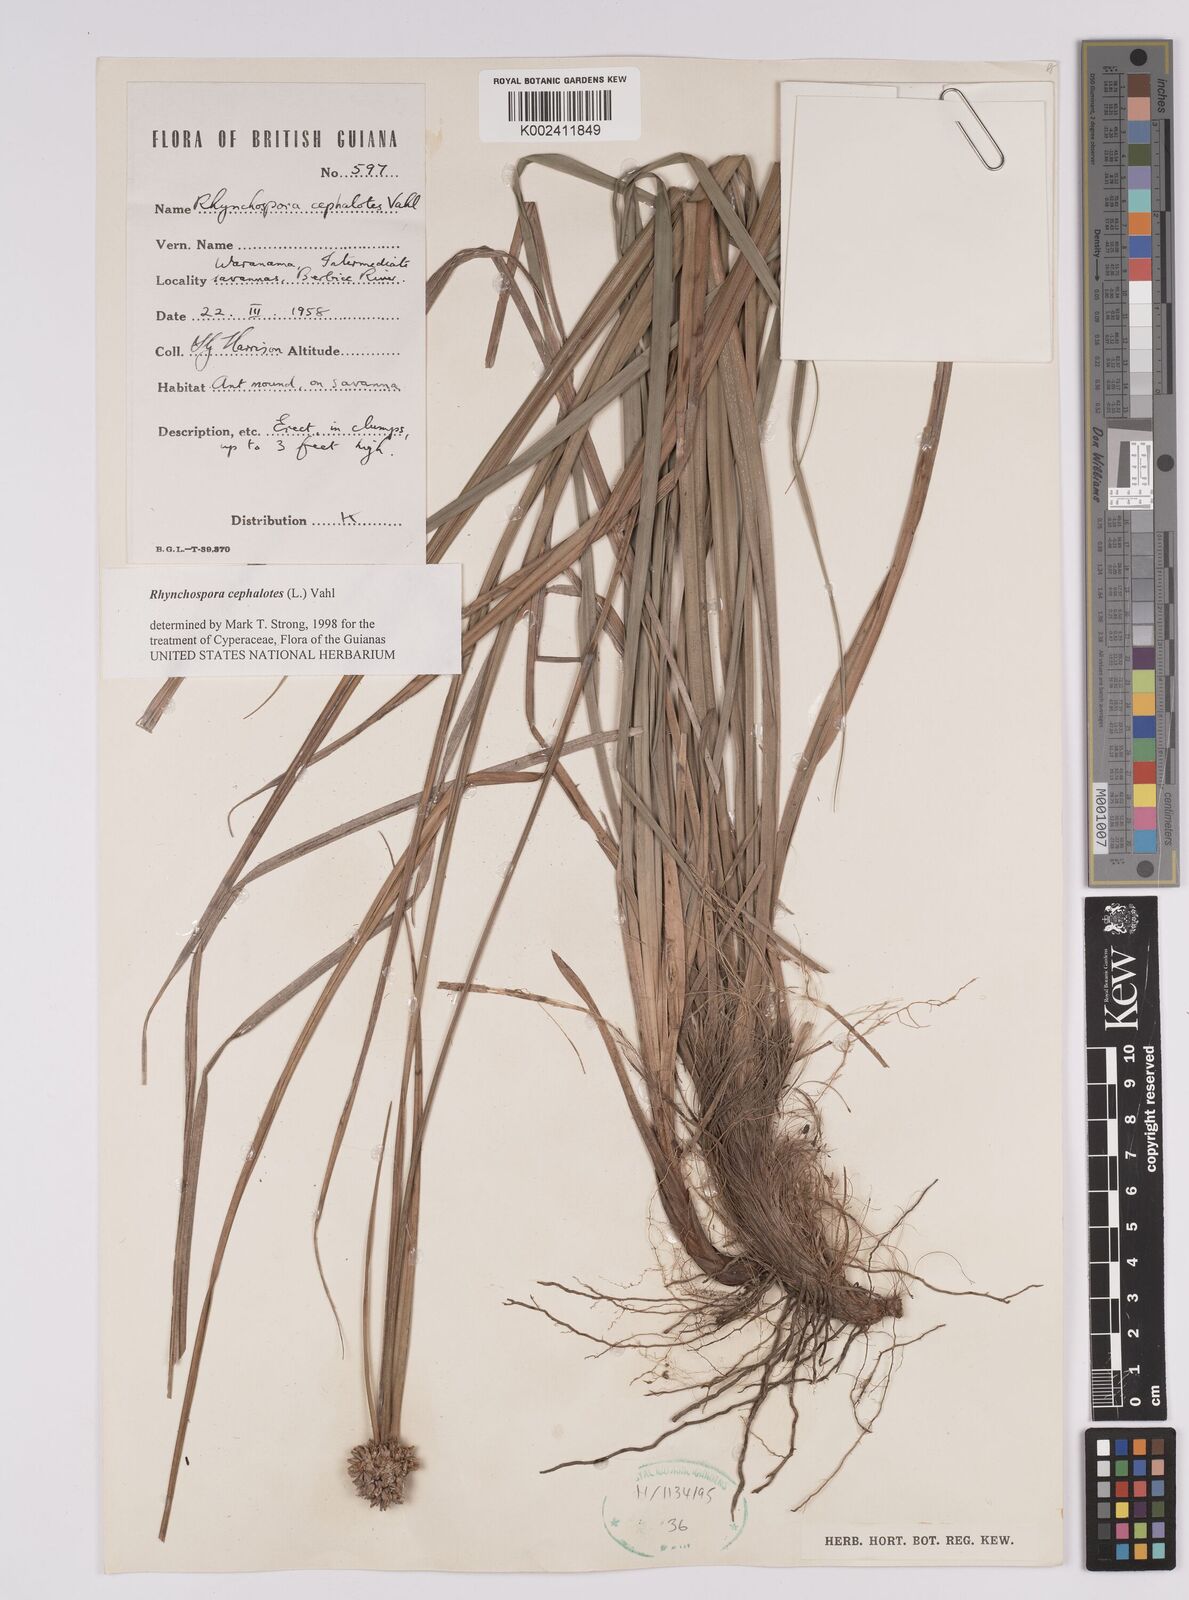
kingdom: Plantae
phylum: Tracheophyta
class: Liliopsida
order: Poales
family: Cyperaceae
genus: Rhynchospora
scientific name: Rhynchospora cephalotes
